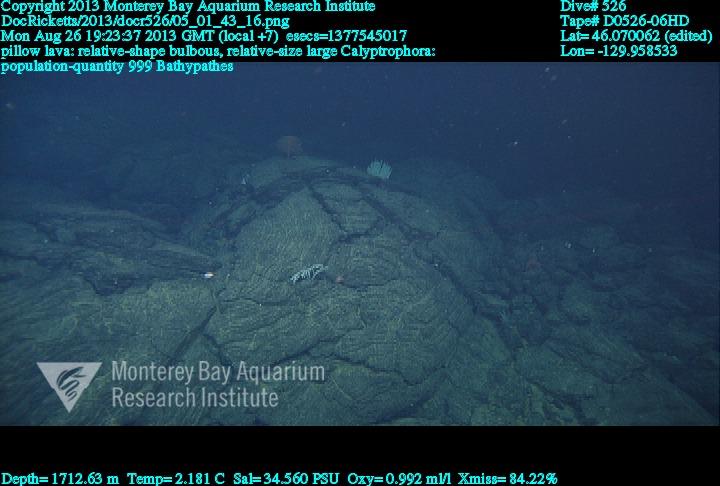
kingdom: Animalia
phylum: Cnidaria
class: Anthozoa
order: Antipatharia
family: Schizopathidae
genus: Bathypathes
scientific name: Bathypathes
